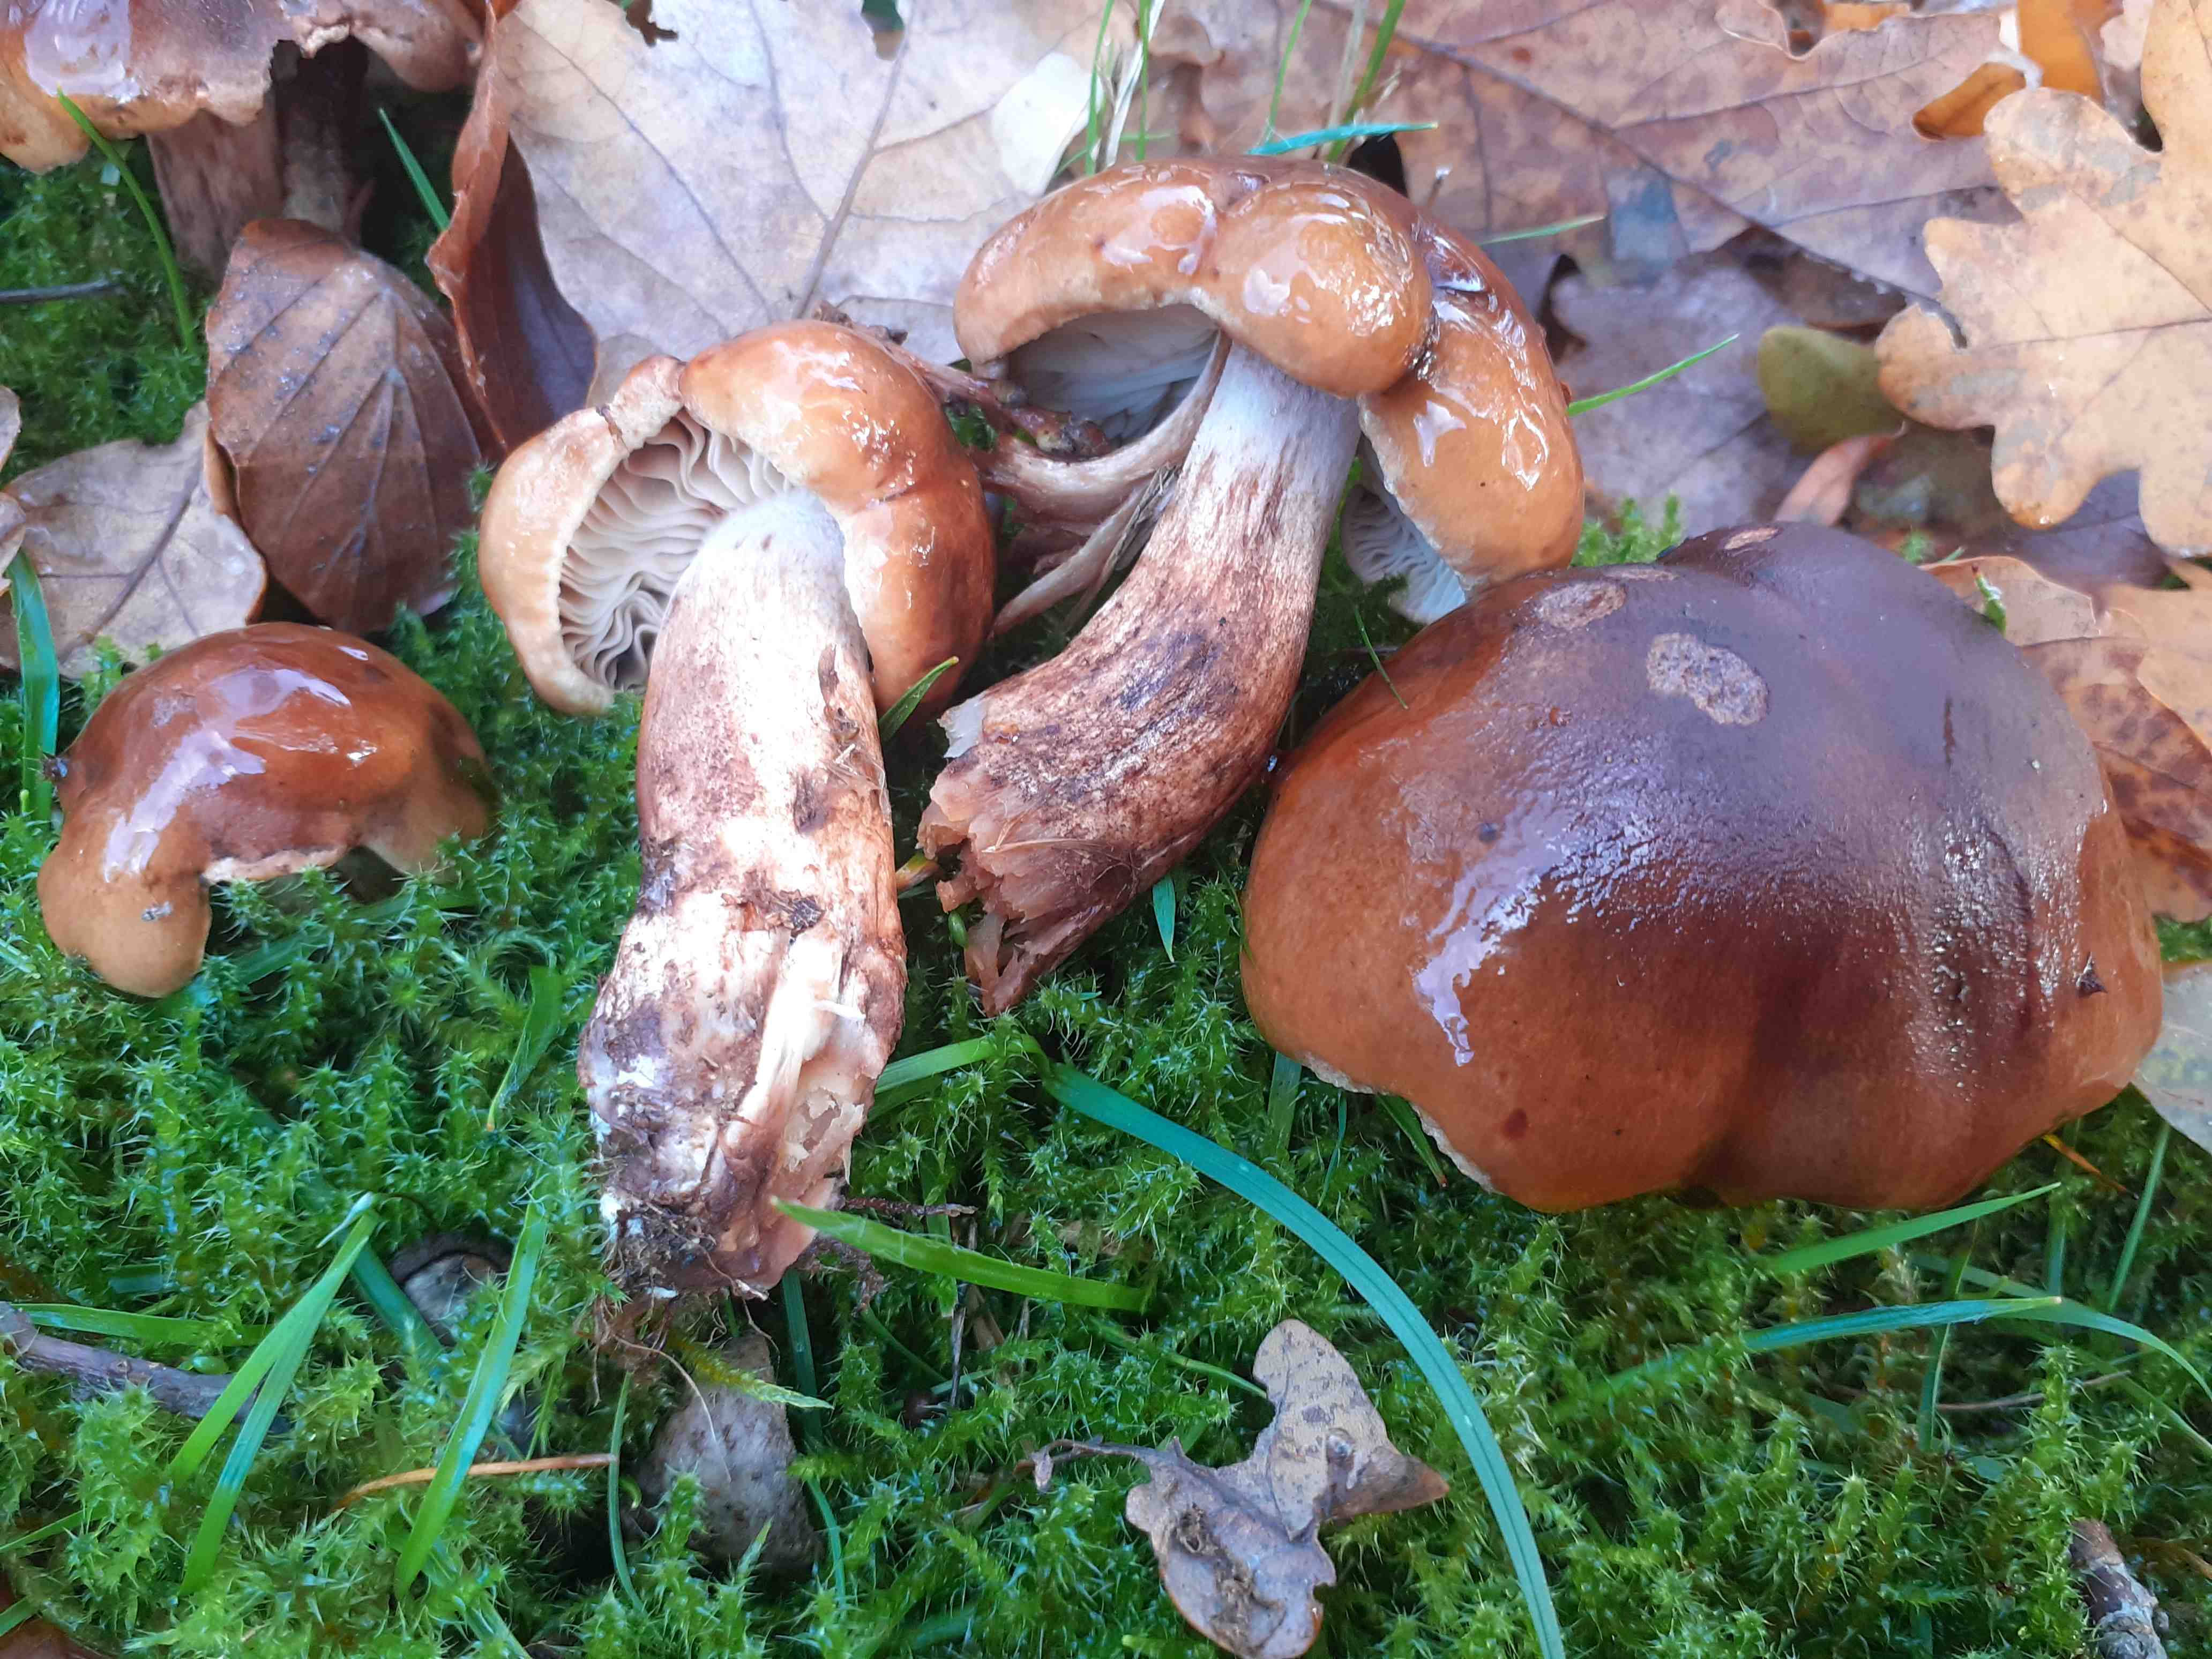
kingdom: Fungi
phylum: Basidiomycota
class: Agaricomycetes
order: Agaricales
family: Tricholomataceae
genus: Tricholoma
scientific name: Tricholoma ustale
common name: sveden ridderhat
